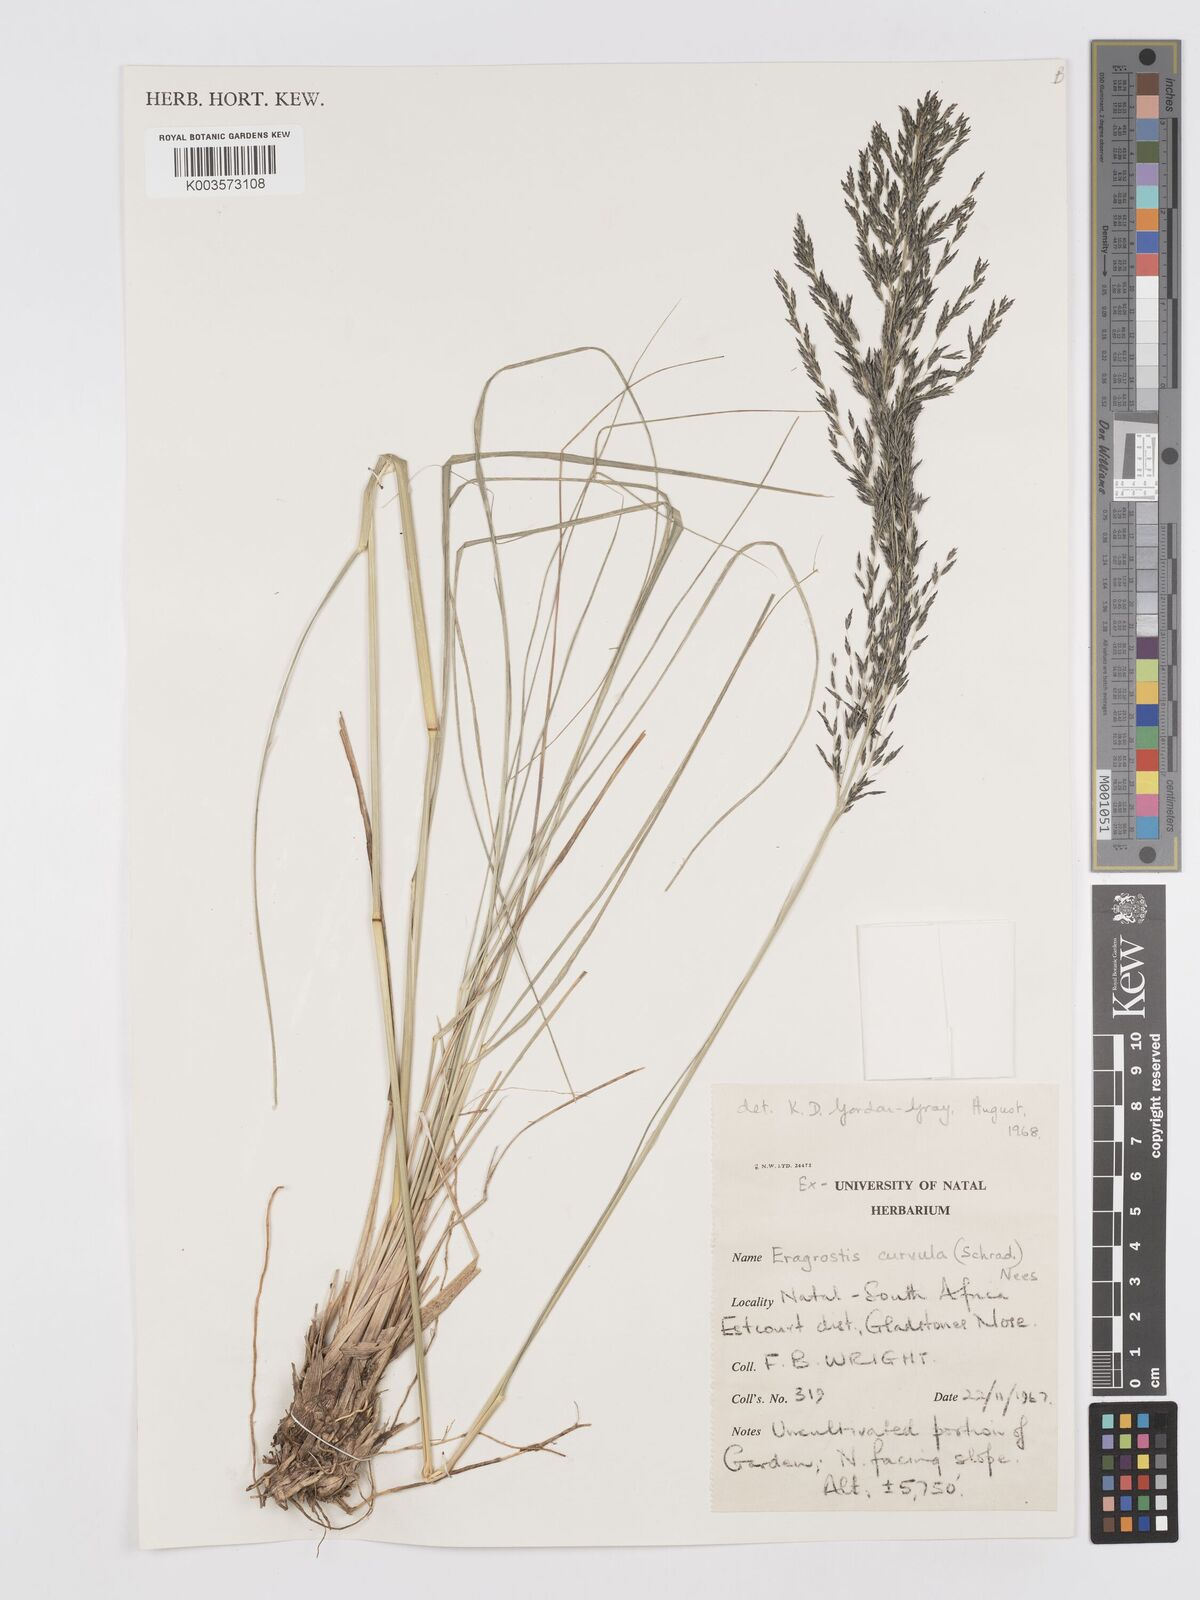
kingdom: Plantae
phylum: Tracheophyta
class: Liliopsida
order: Poales
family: Poaceae
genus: Eragrostis
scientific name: Eragrostis curvula
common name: African love-grass
